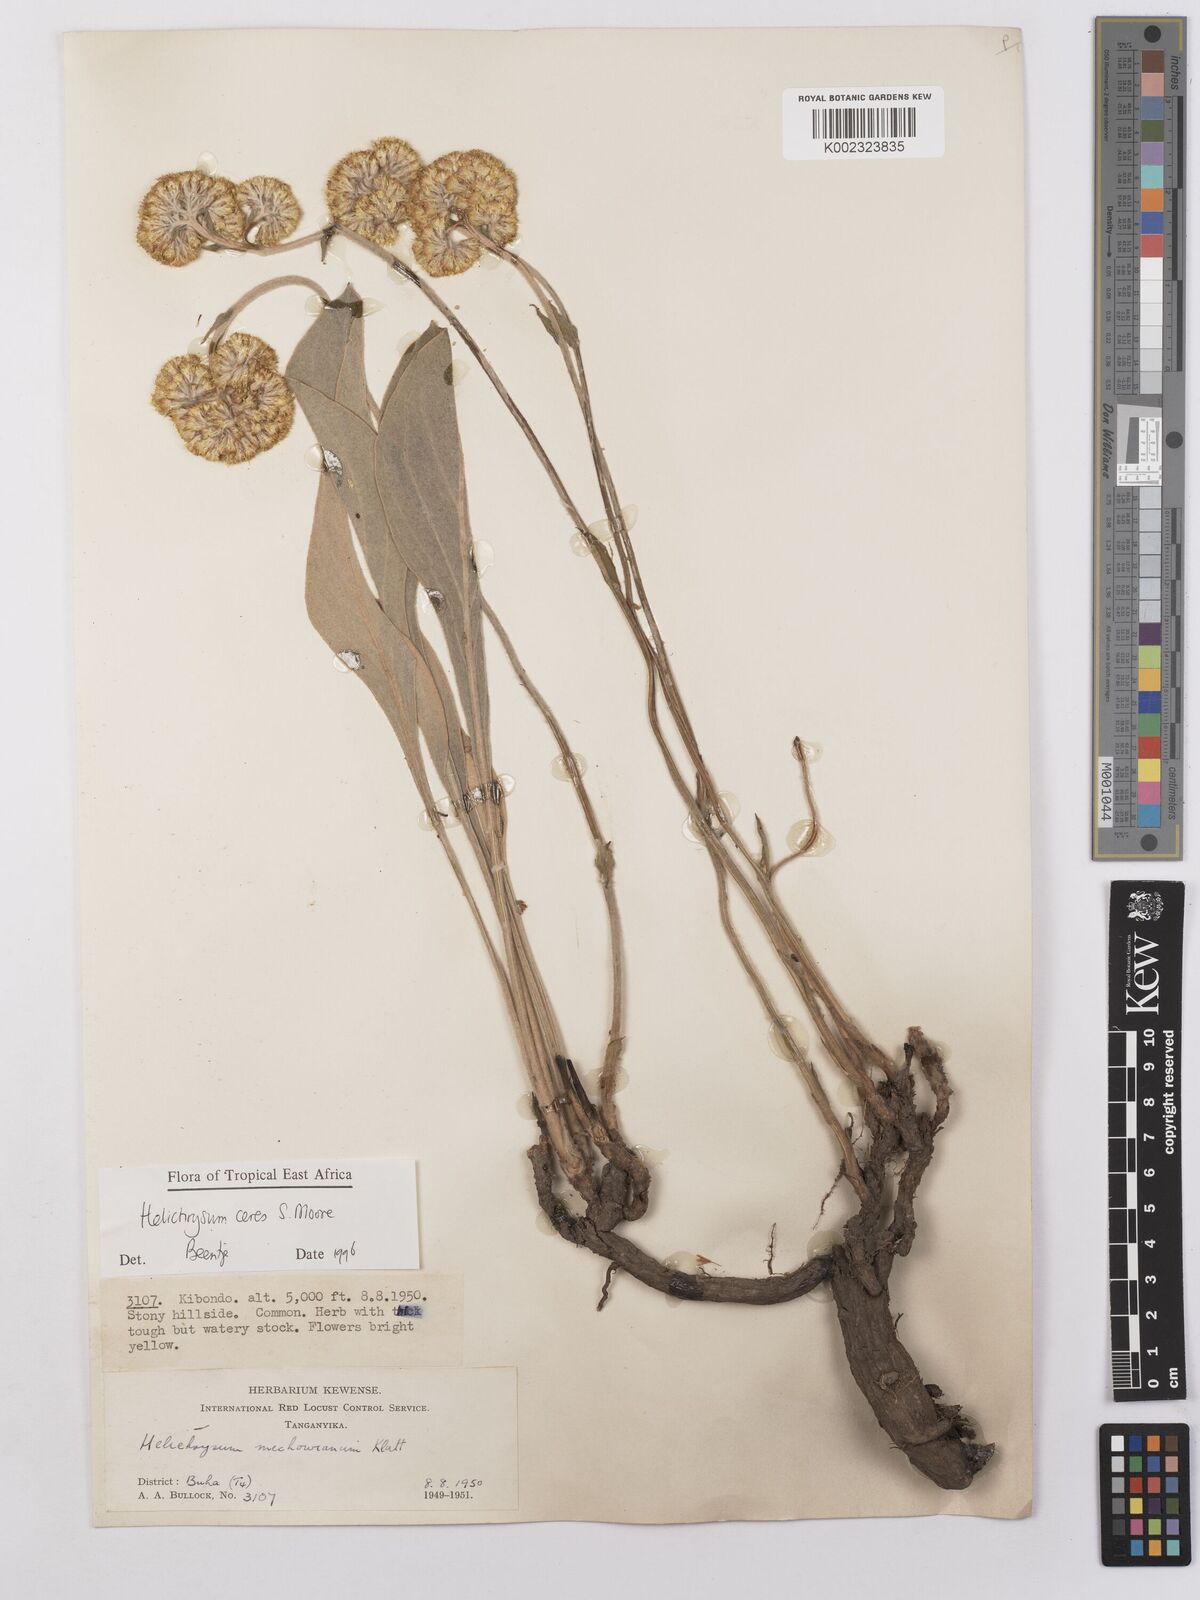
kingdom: Plantae
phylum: Tracheophyta
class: Magnoliopsida
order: Asterales
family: Asteraceae
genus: Helichrysum
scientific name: Helichrysum mechowianum
